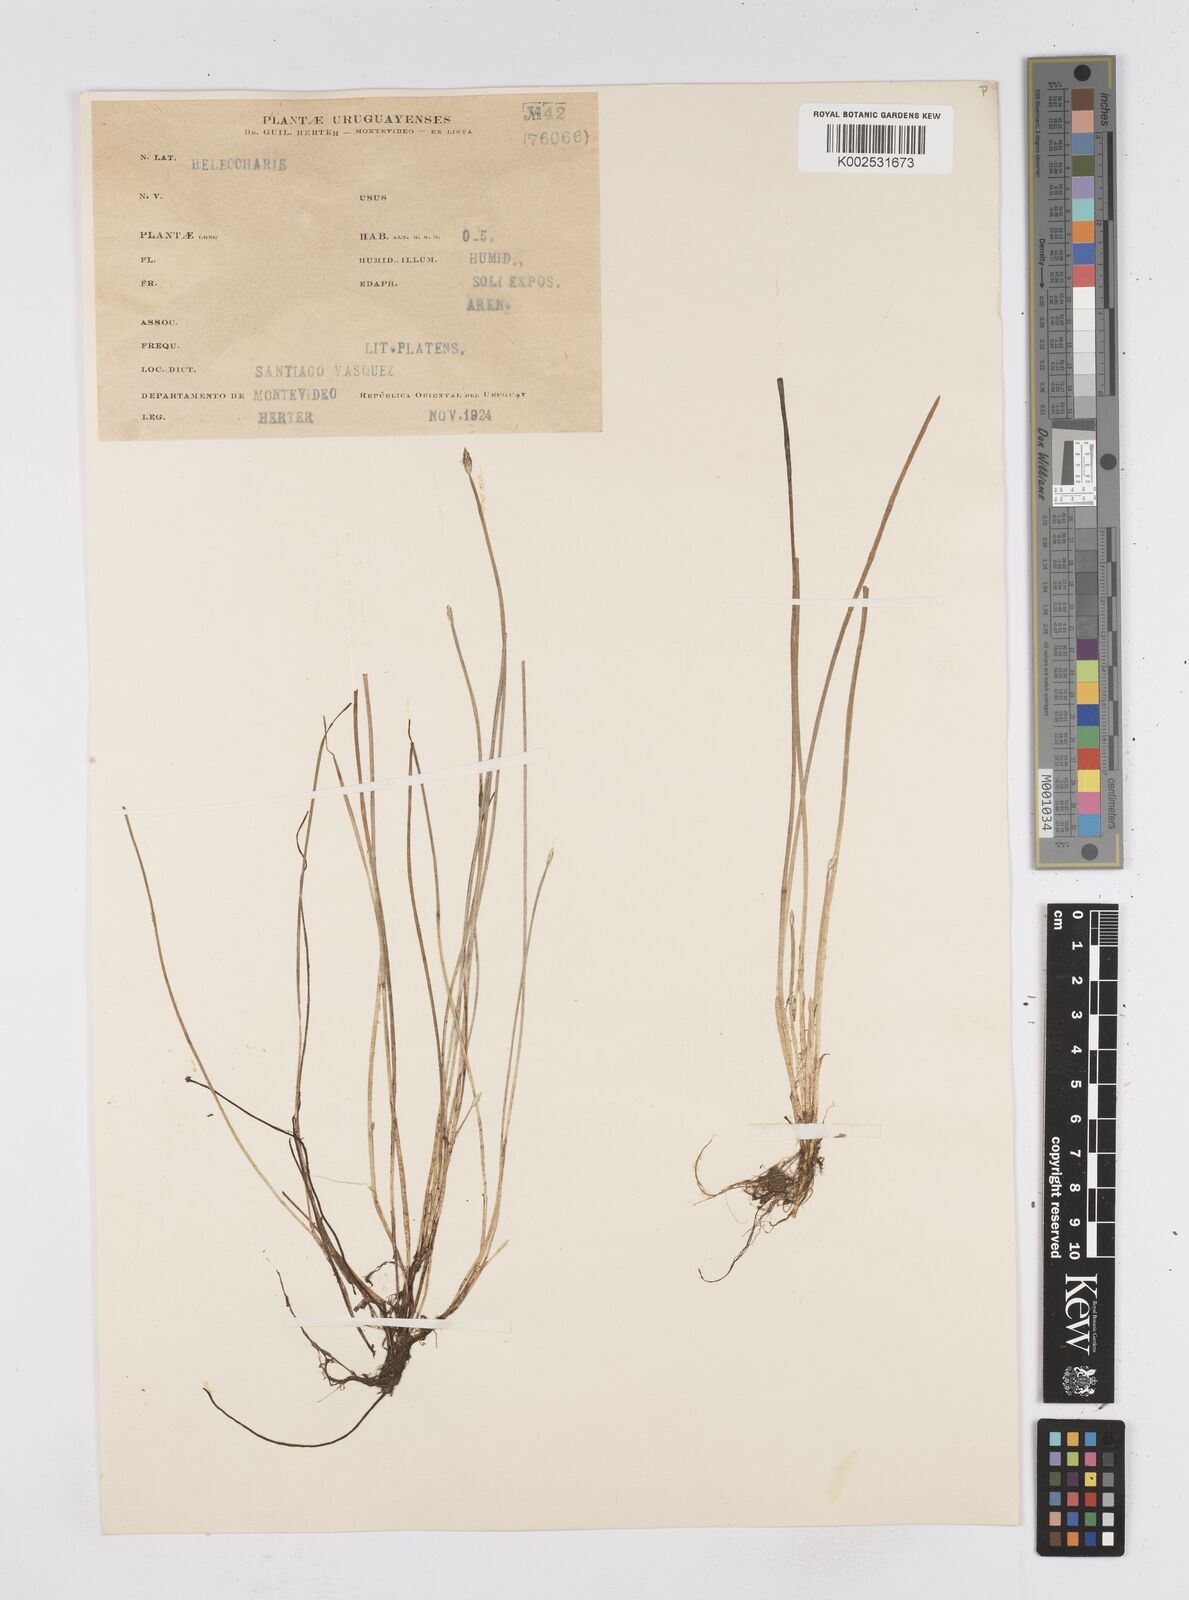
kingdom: Plantae
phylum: Tracheophyta
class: Liliopsida
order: Poales
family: Cyperaceae
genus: Eleocharis
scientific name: Eleocharis
